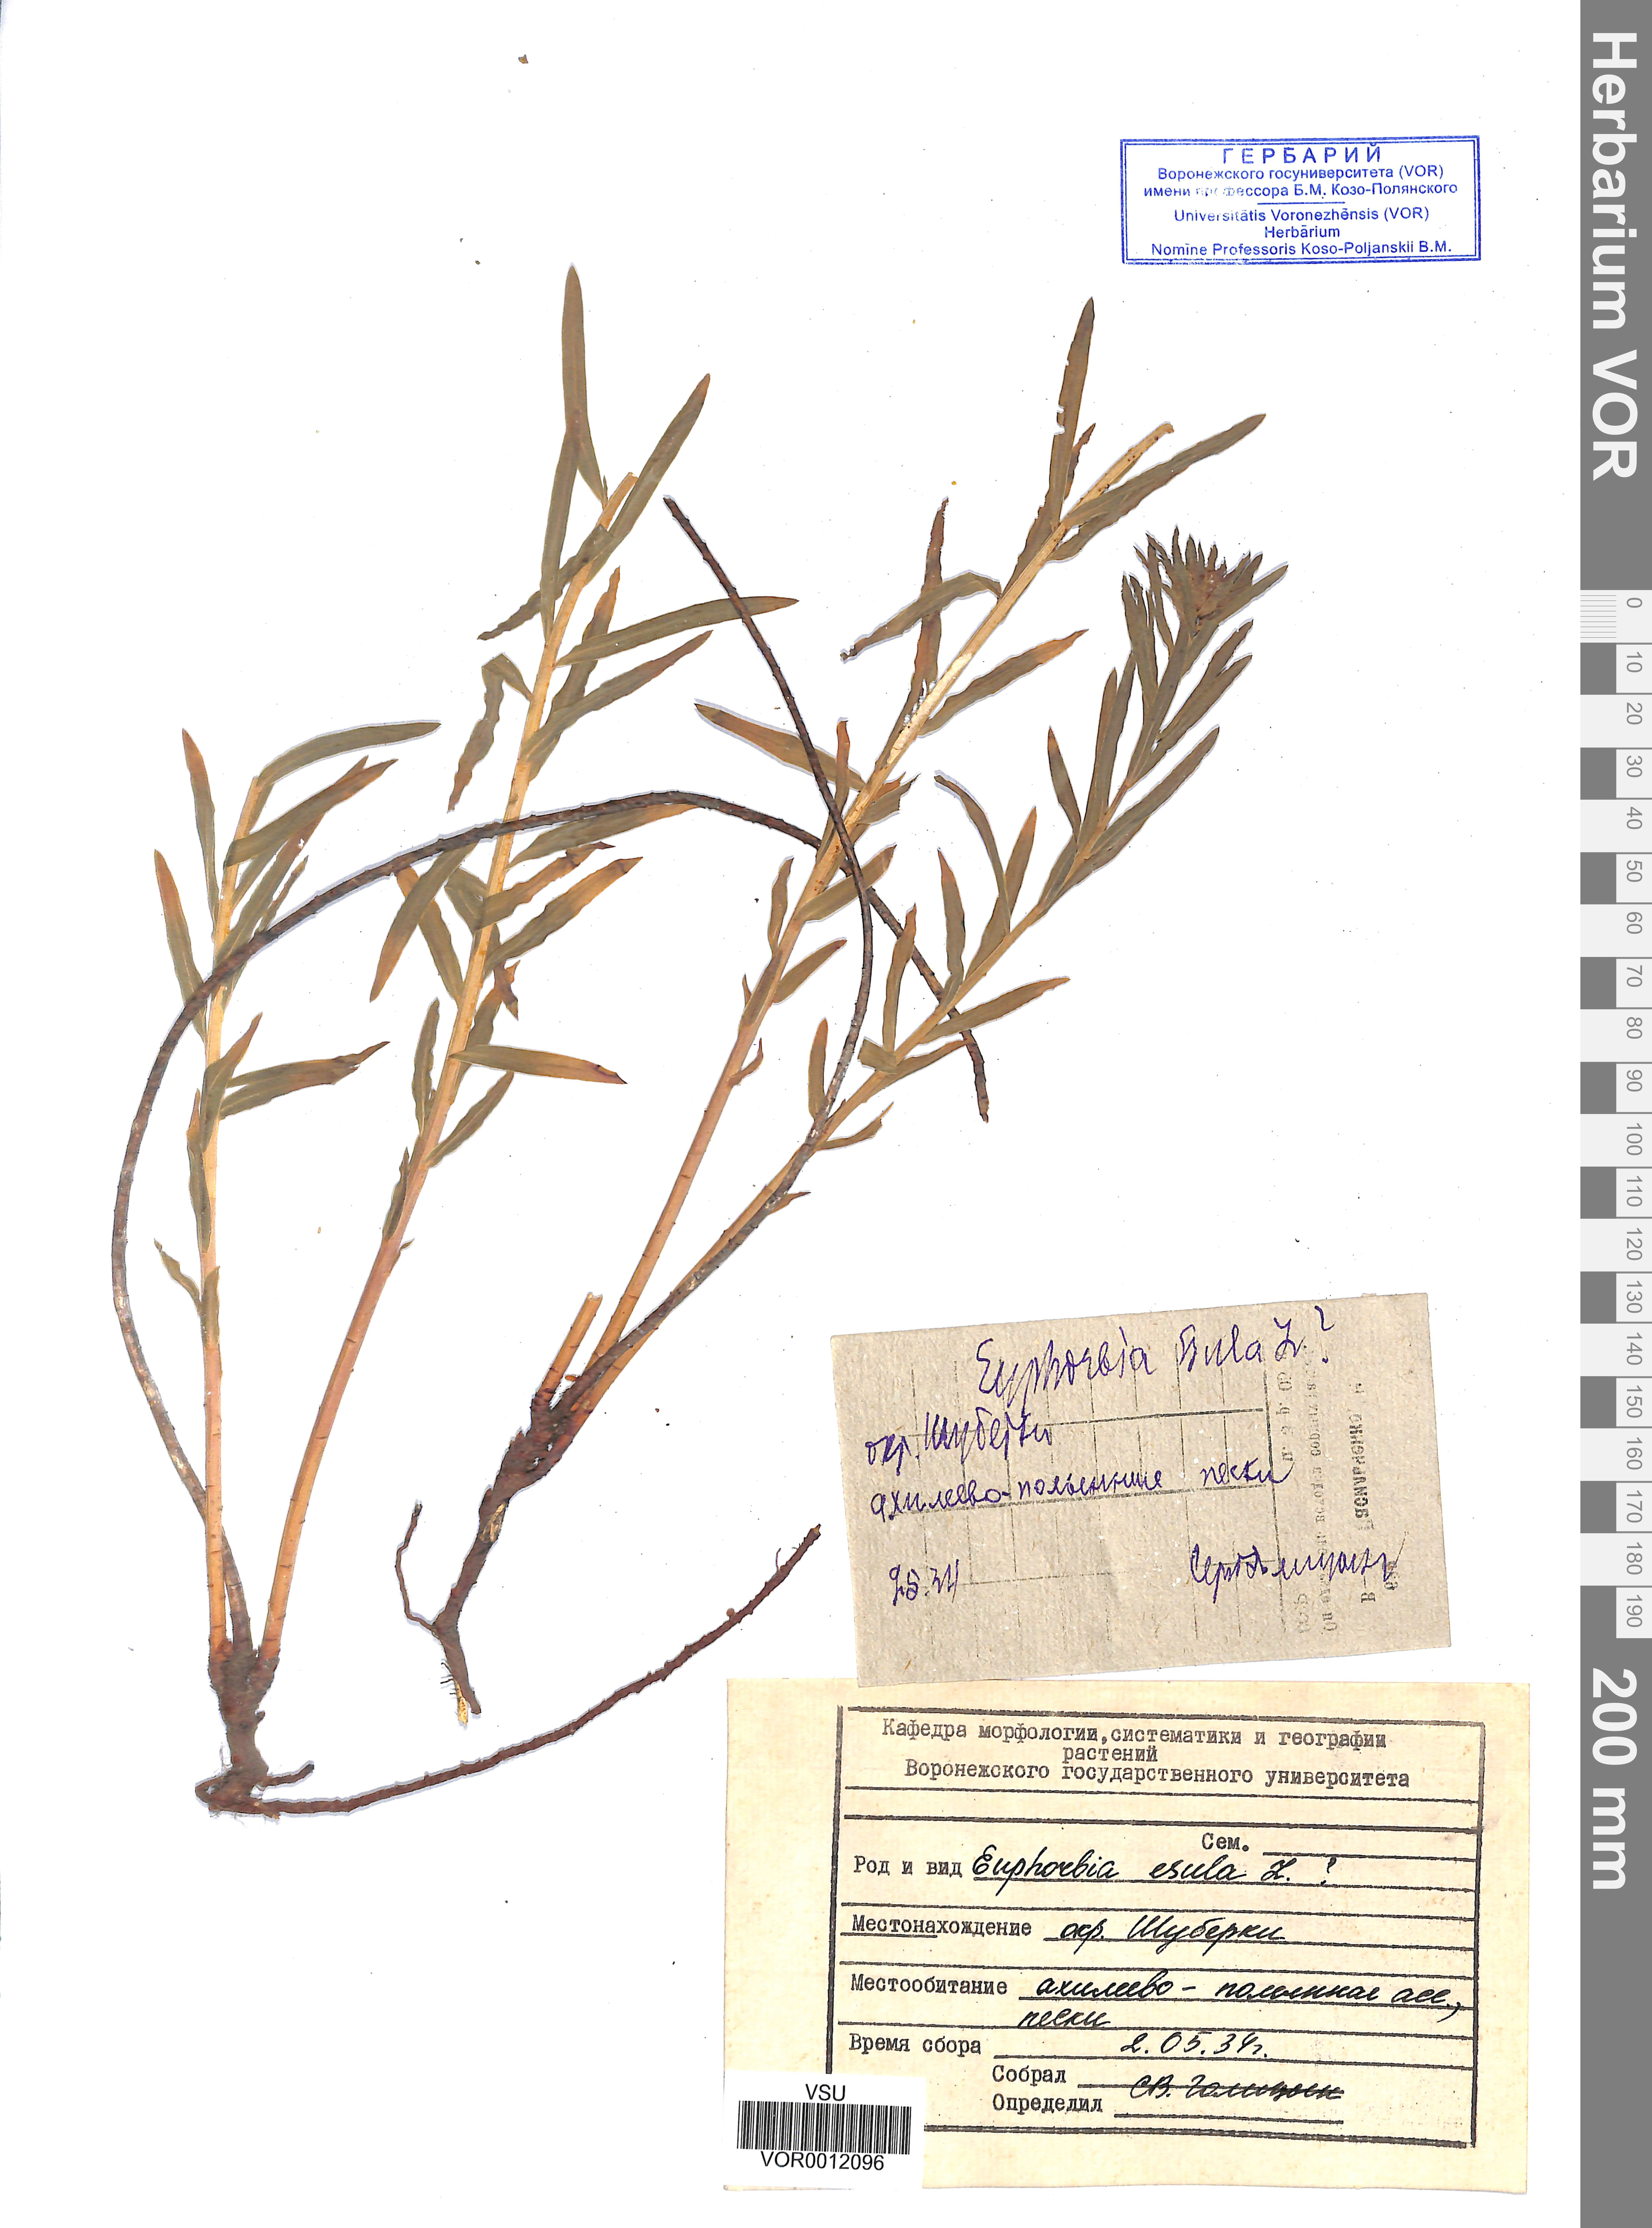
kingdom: Plantae
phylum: Tracheophyta
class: Magnoliopsida
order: Malpighiales
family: Euphorbiaceae
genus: Euphorbia
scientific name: Euphorbia esula
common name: Leafy spurge
